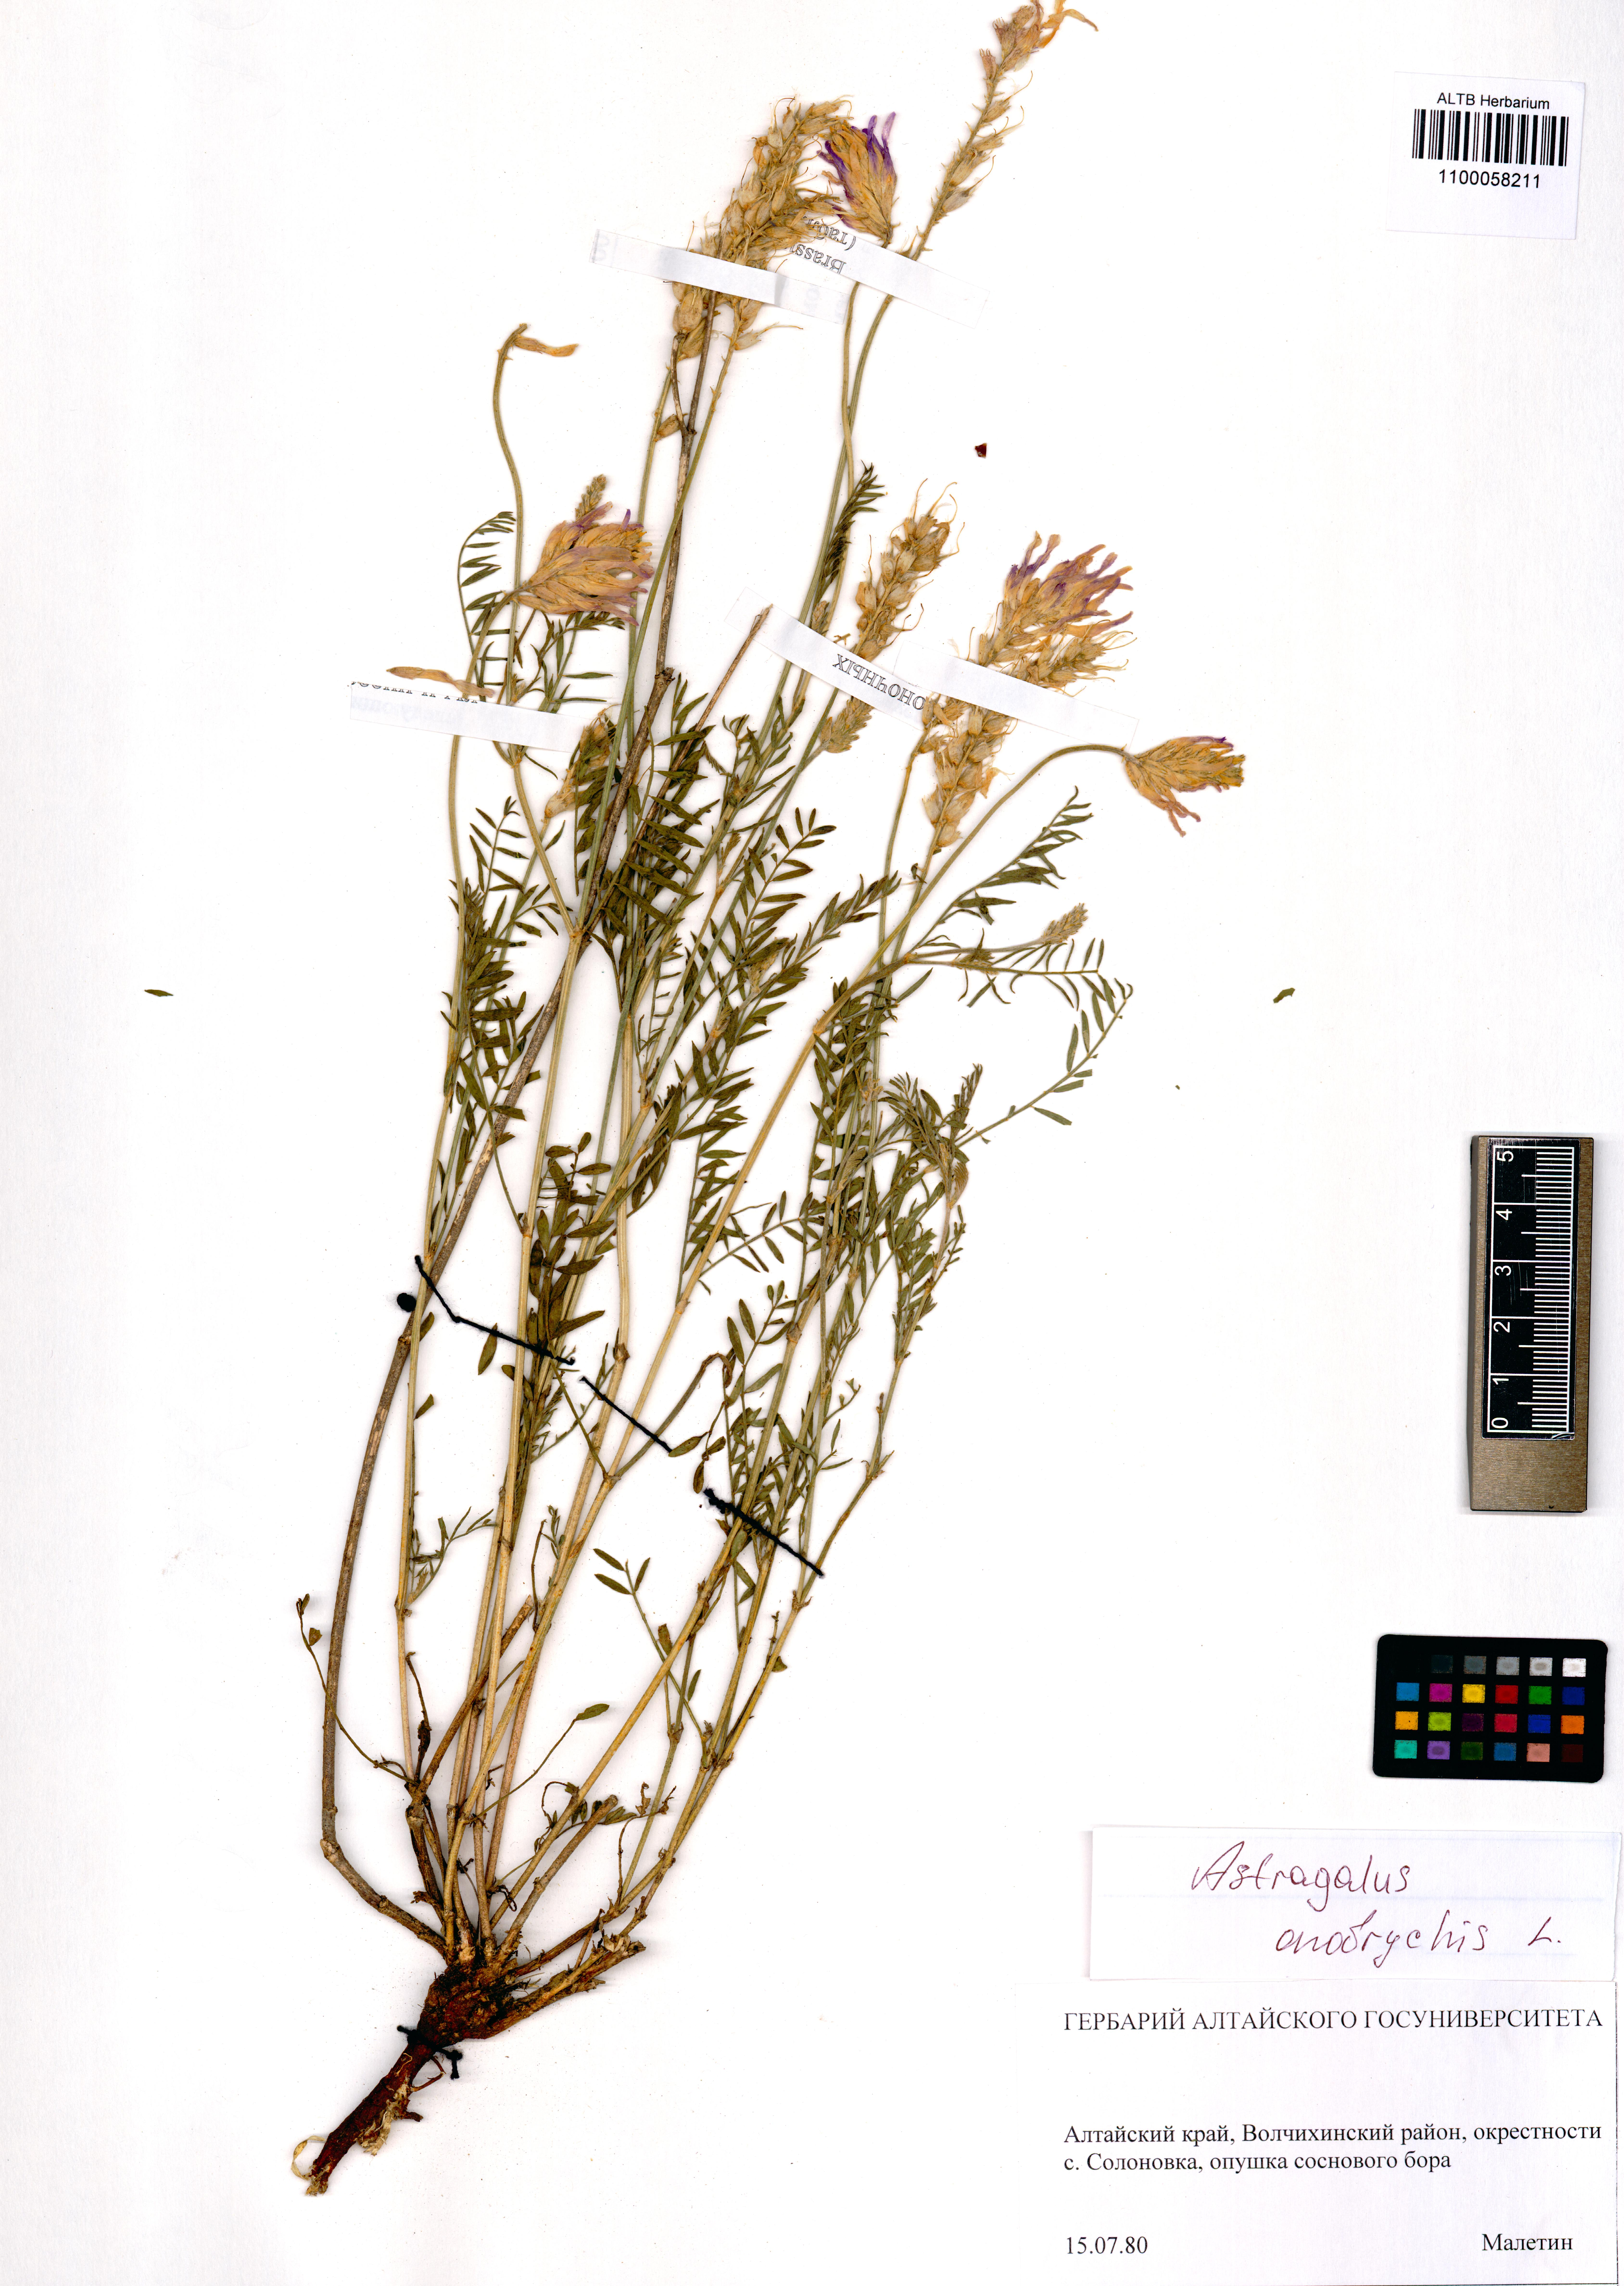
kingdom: Plantae
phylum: Tracheophyta
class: Magnoliopsida
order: Fabales
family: Fabaceae
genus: Astragalus
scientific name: Astragalus onobrychis
